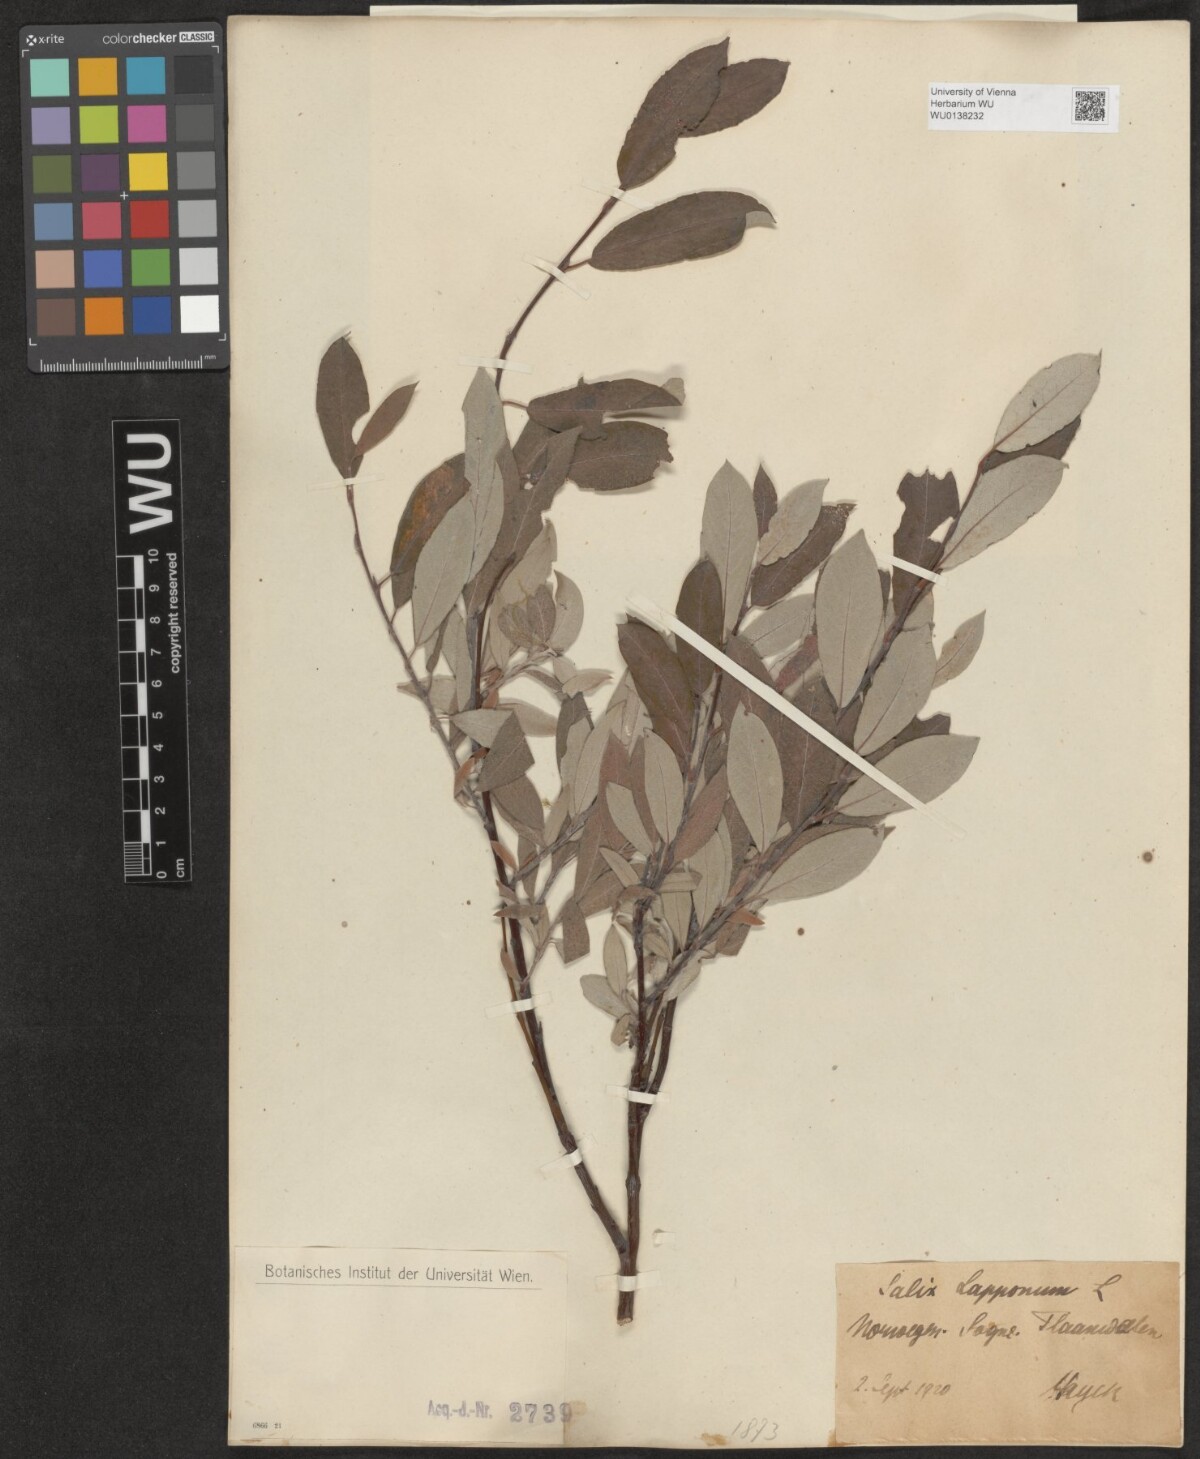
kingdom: Plantae
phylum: Tracheophyta
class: Magnoliopsida
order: Malpighiales
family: Salicaceae
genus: Salix
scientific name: Salix lapponum
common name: Downy willow
